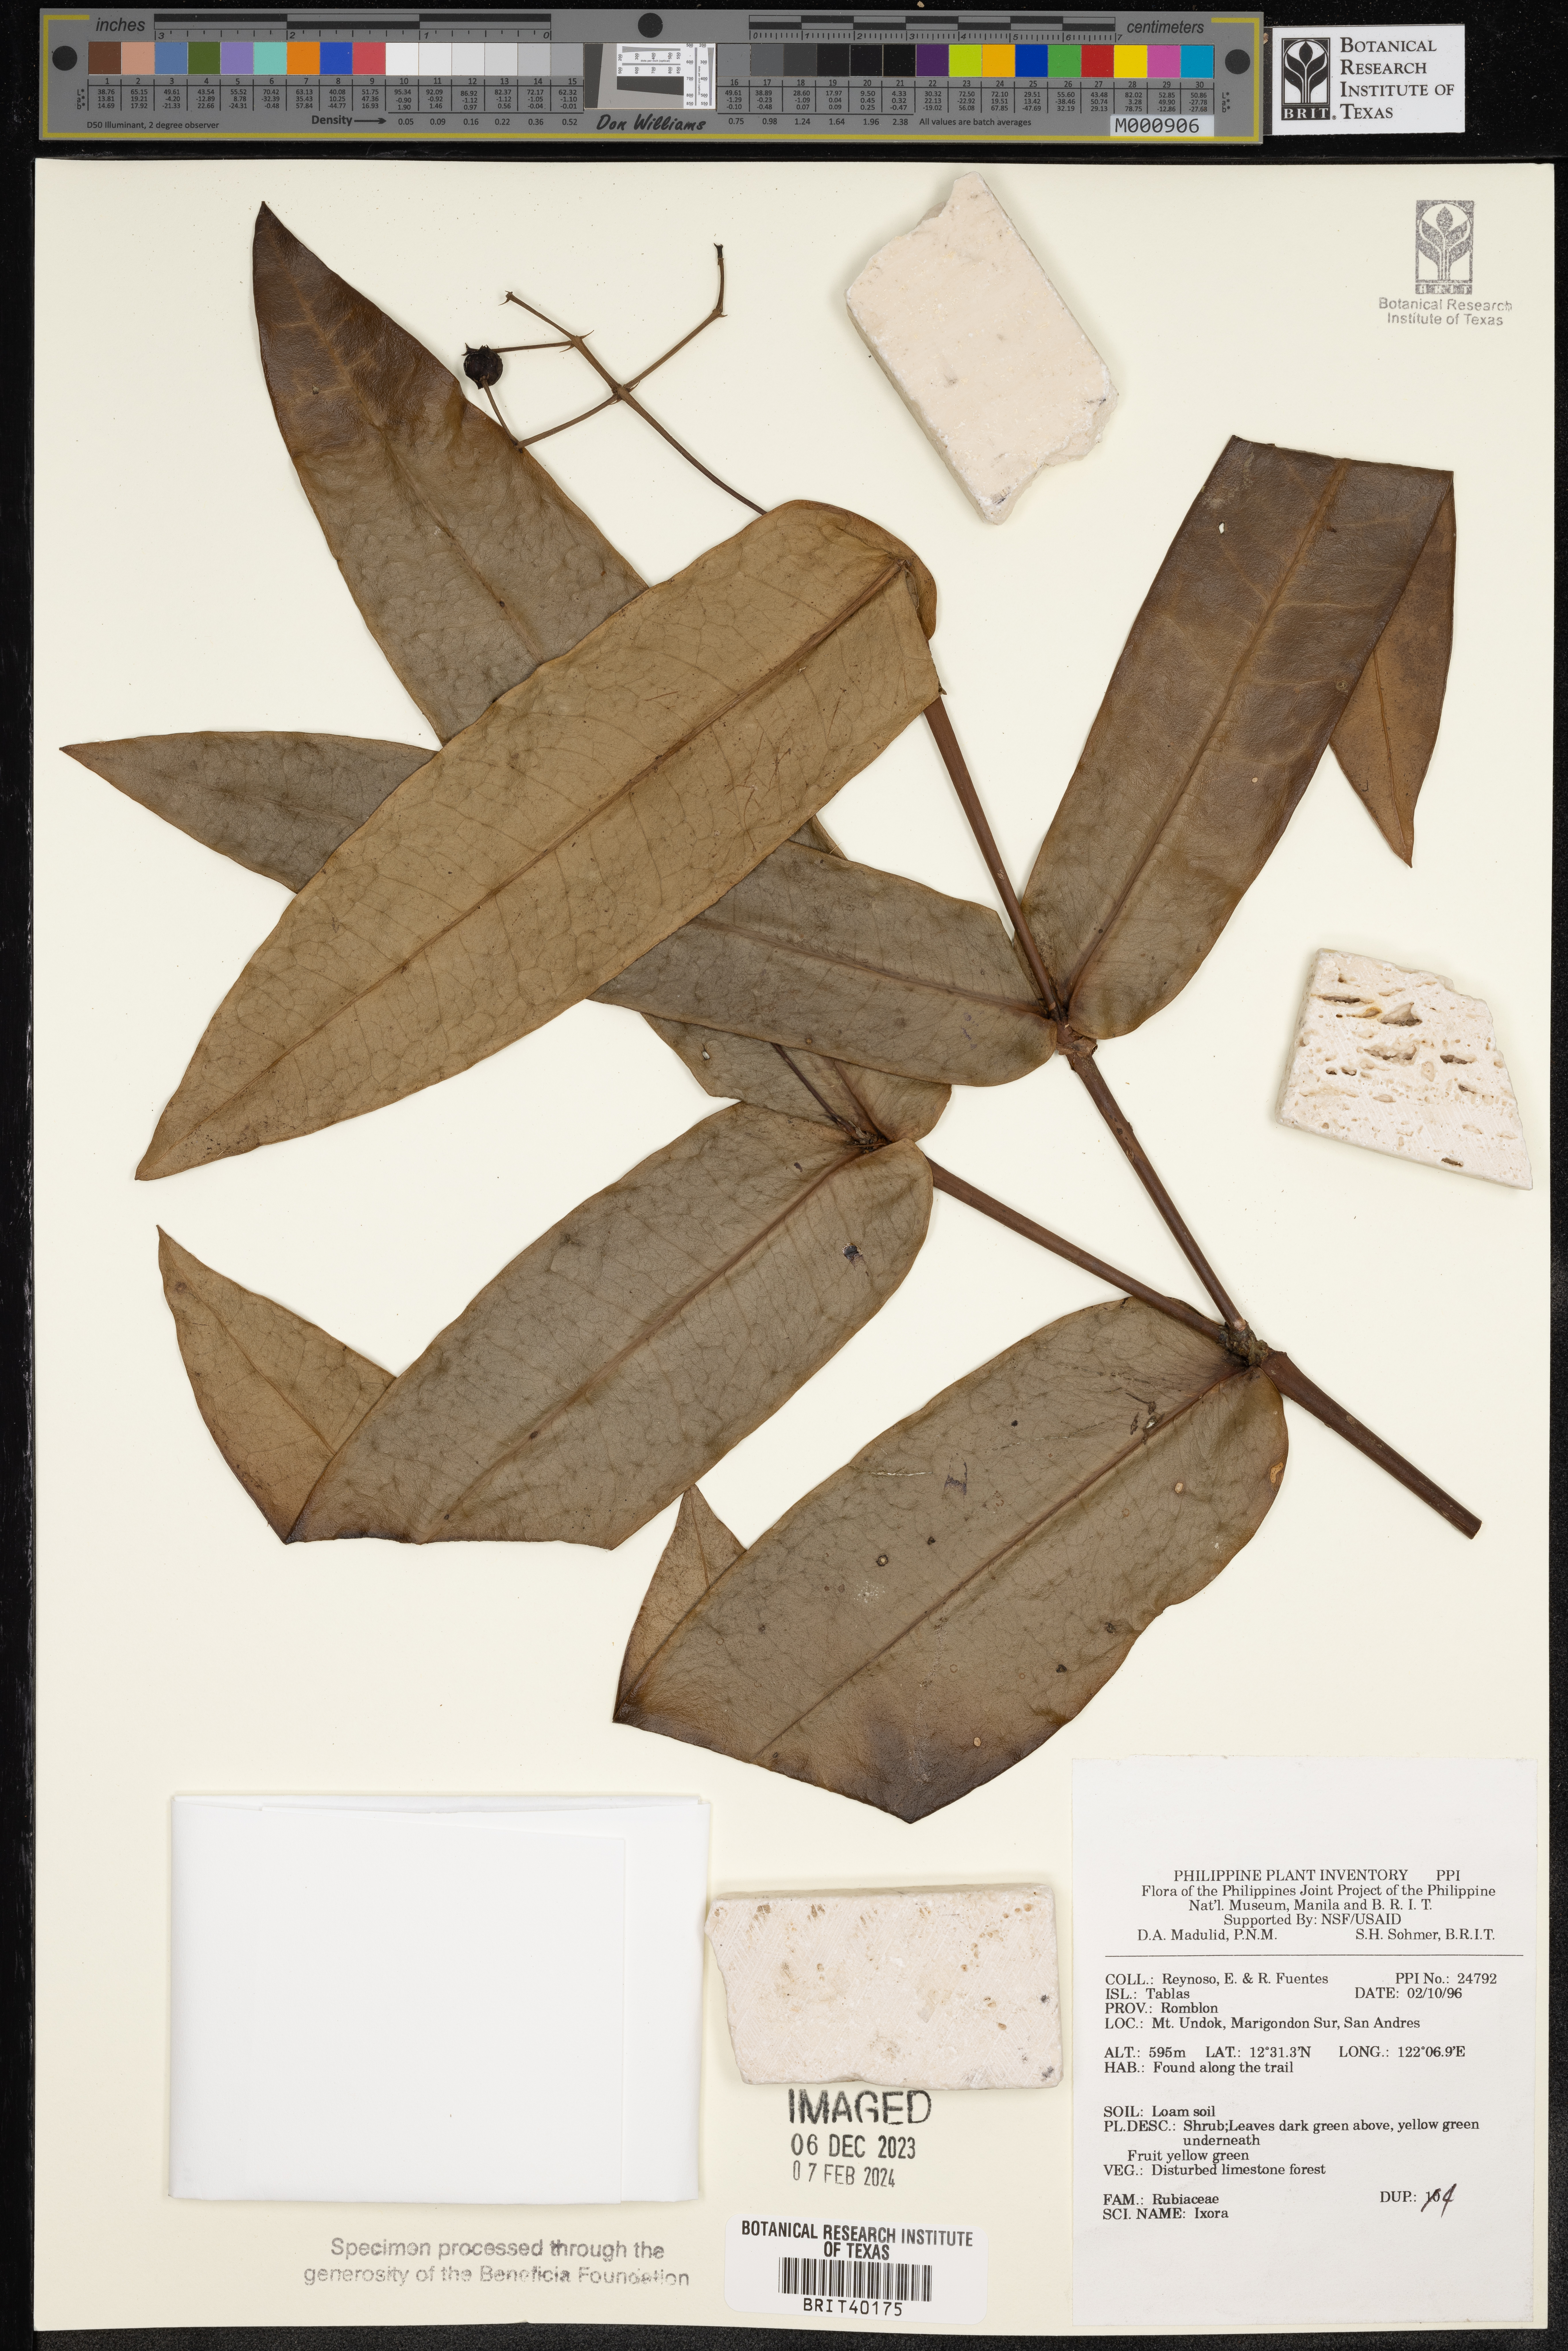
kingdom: Plantae
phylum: Tracheophyta
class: Magnoliopsida
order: Gentianales
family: Rubiaceae
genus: Ixora
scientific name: Ixora
